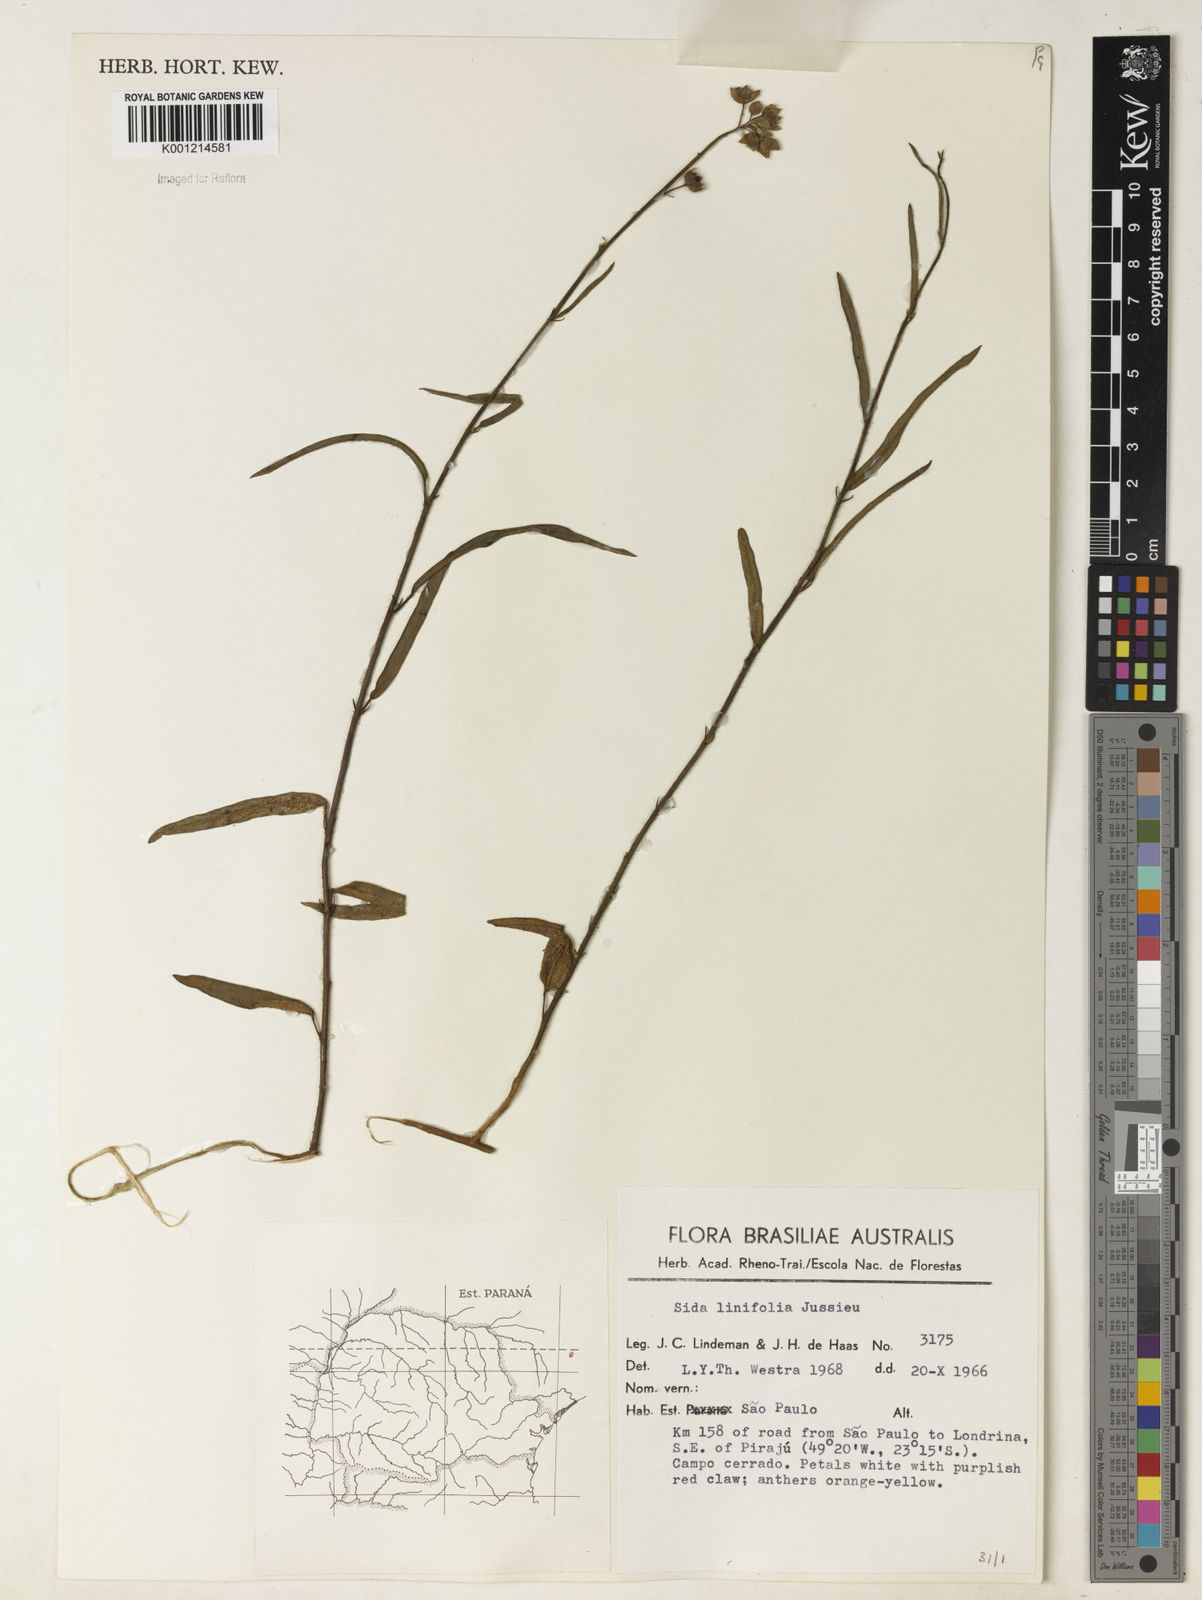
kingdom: Plantae
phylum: Tracheophyta
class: Magnoliopsida
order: Malvales
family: Malvaceae
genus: Sida
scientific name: Sida linifolia
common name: Flaxleaf fanpetals
